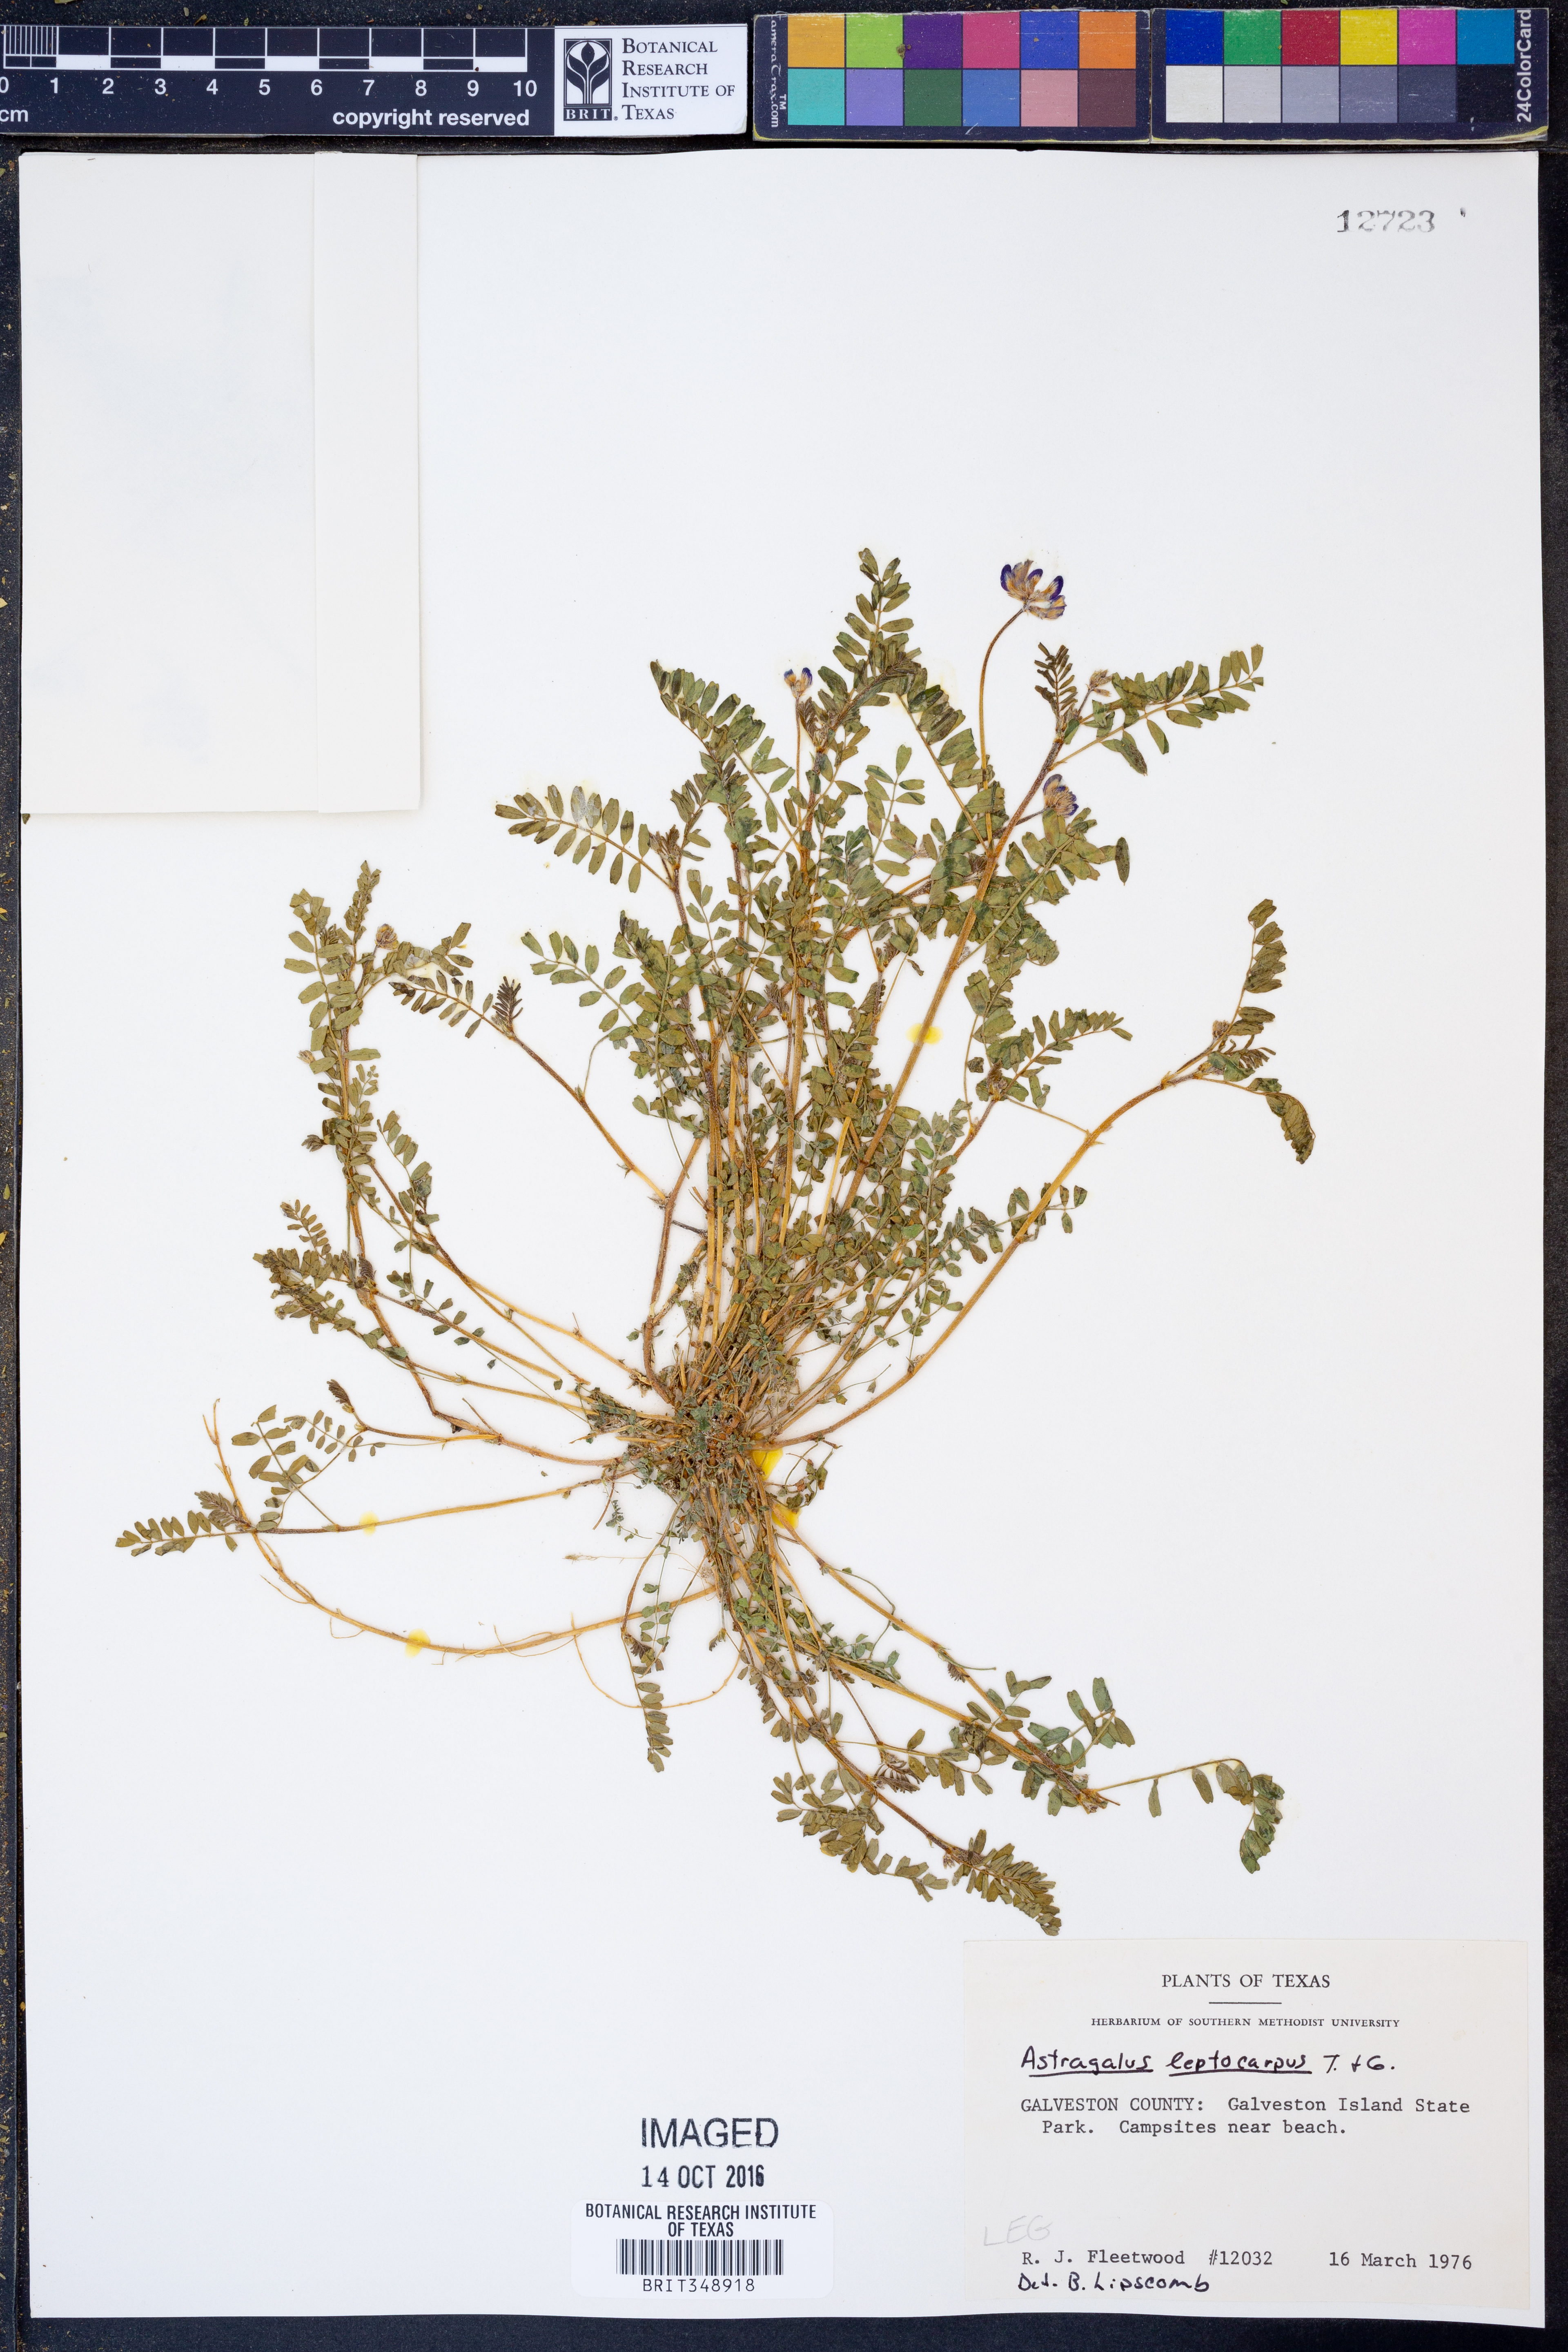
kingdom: Plantae
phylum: Tracheophyta
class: Magnoliopsida
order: Fabales
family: Fabaceae
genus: Astragalus
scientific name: Astragalus leptocarpus
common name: Bodkin milk-vetch
